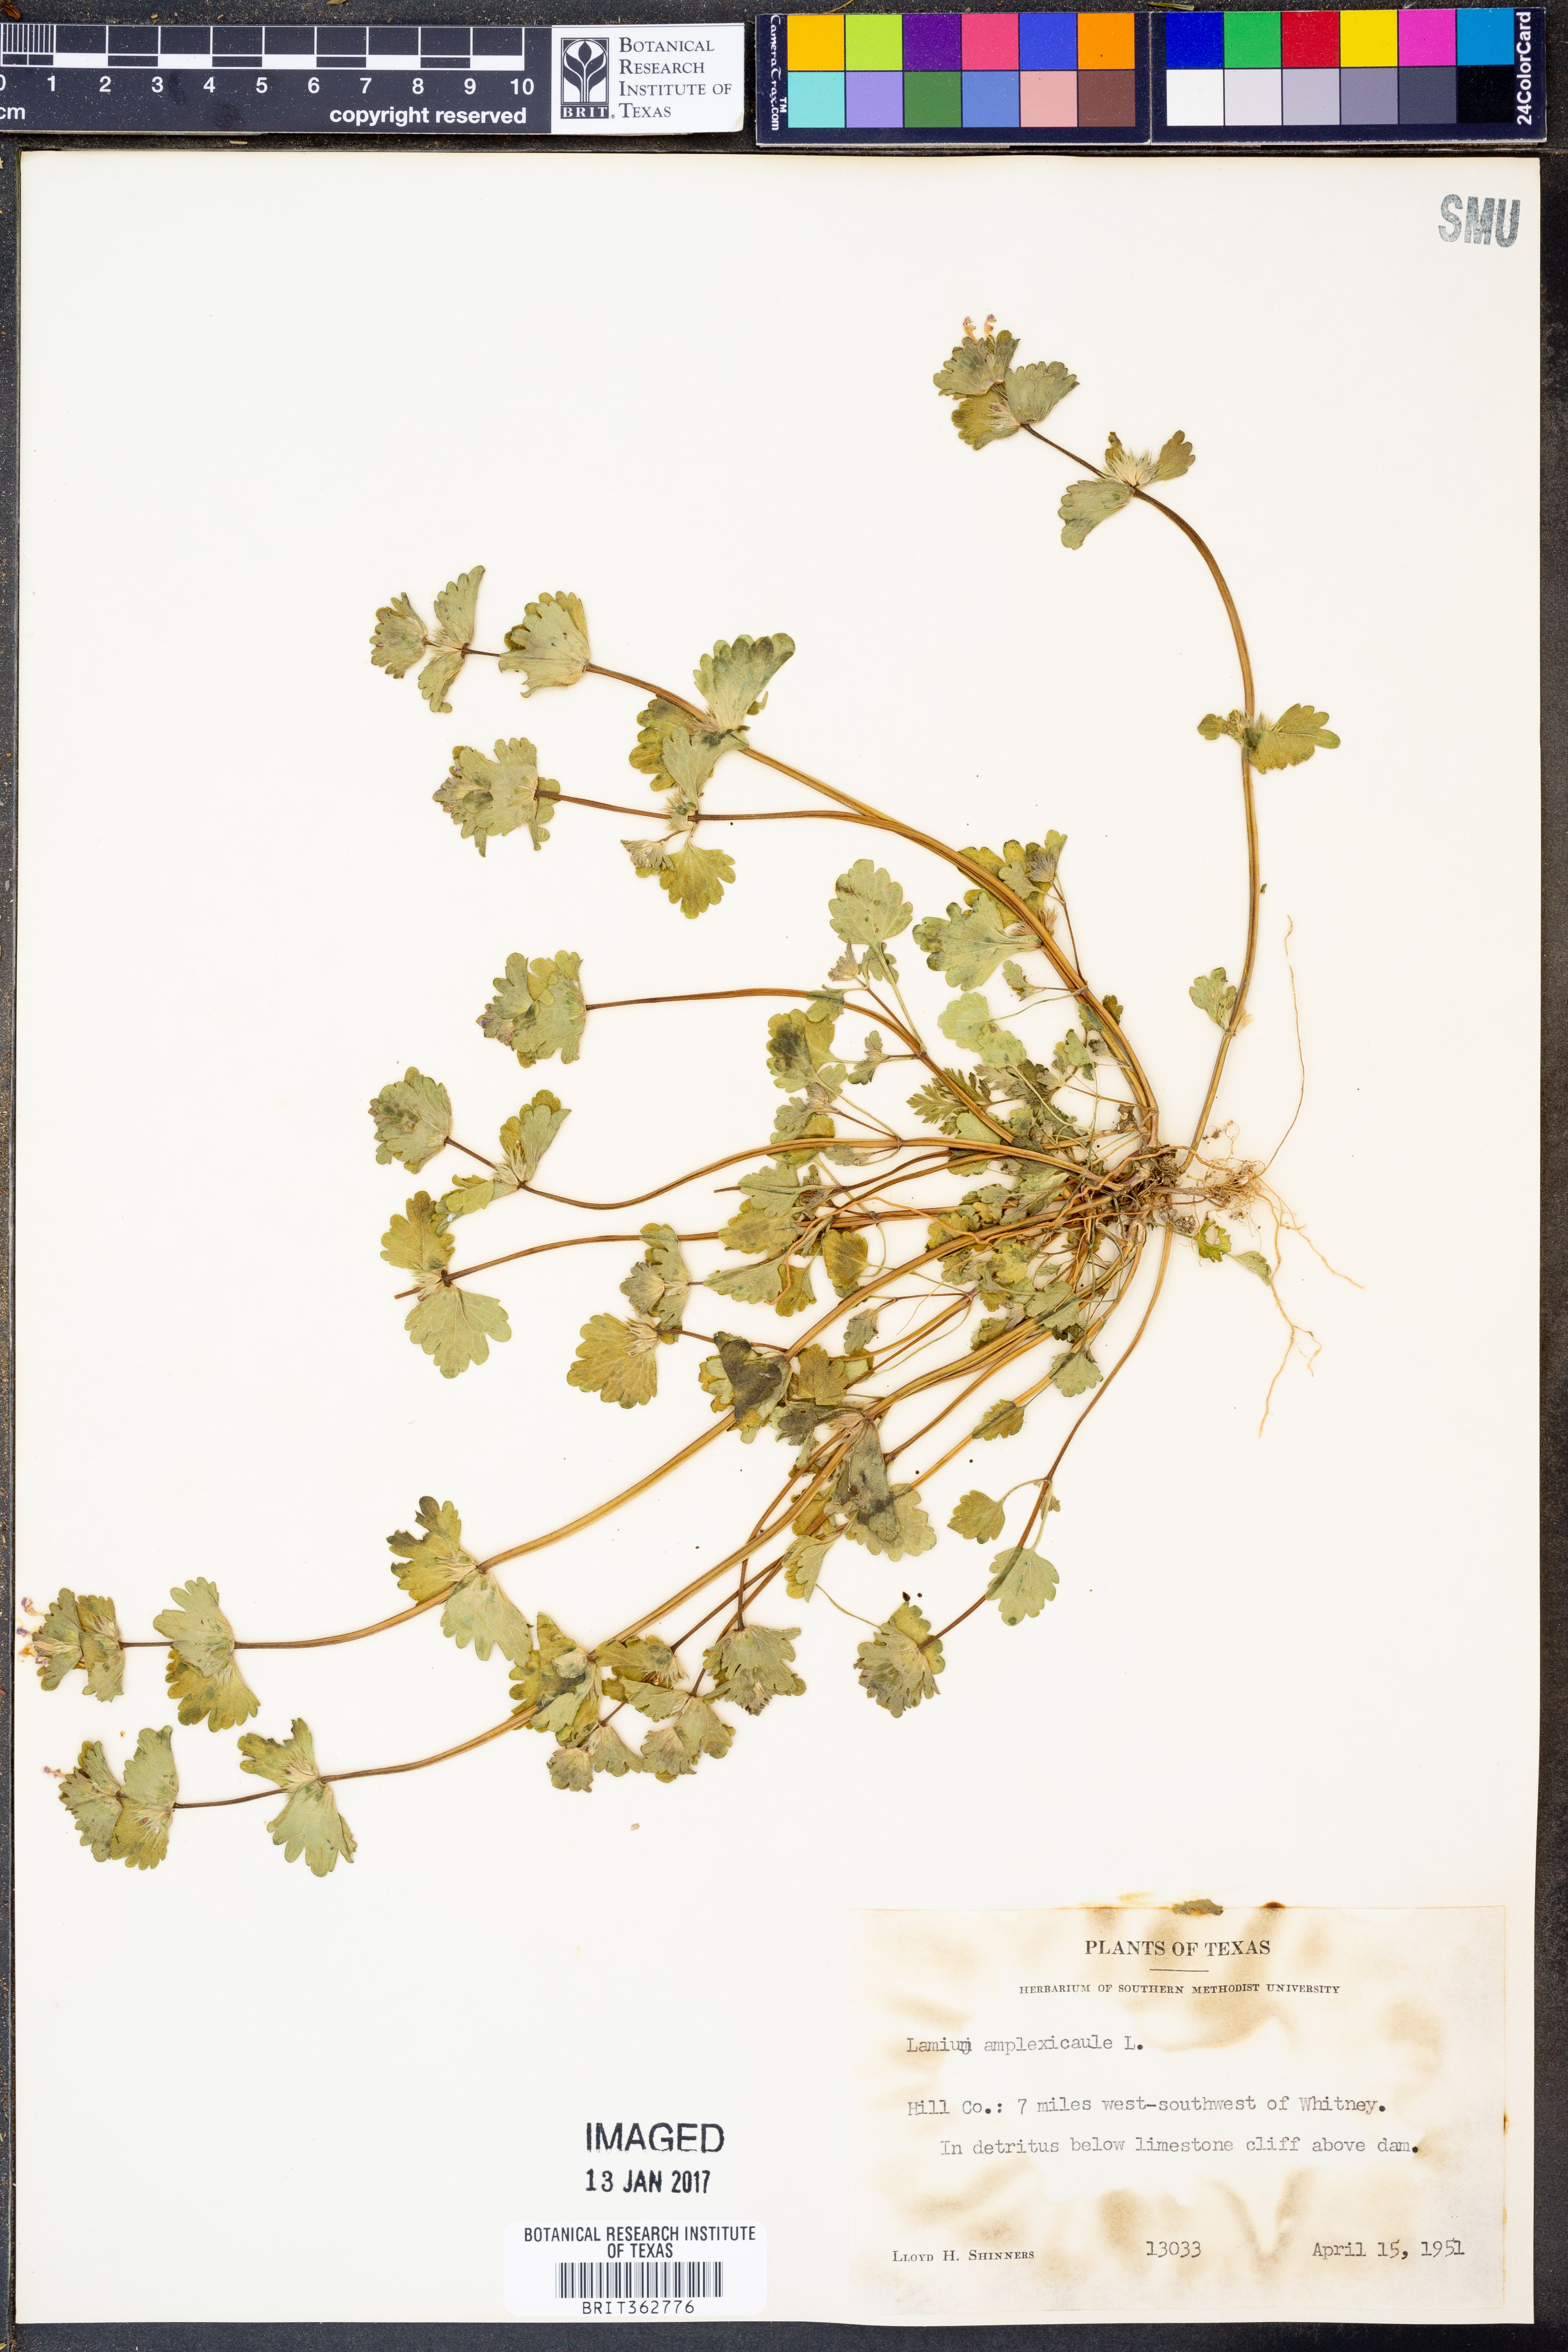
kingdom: Plantae
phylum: Tracheophyta
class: Magnoliopsida
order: Lamiales
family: Lamiaceae
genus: Lamium
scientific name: Lamium amplexicaule
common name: Henbit dead-nettle
